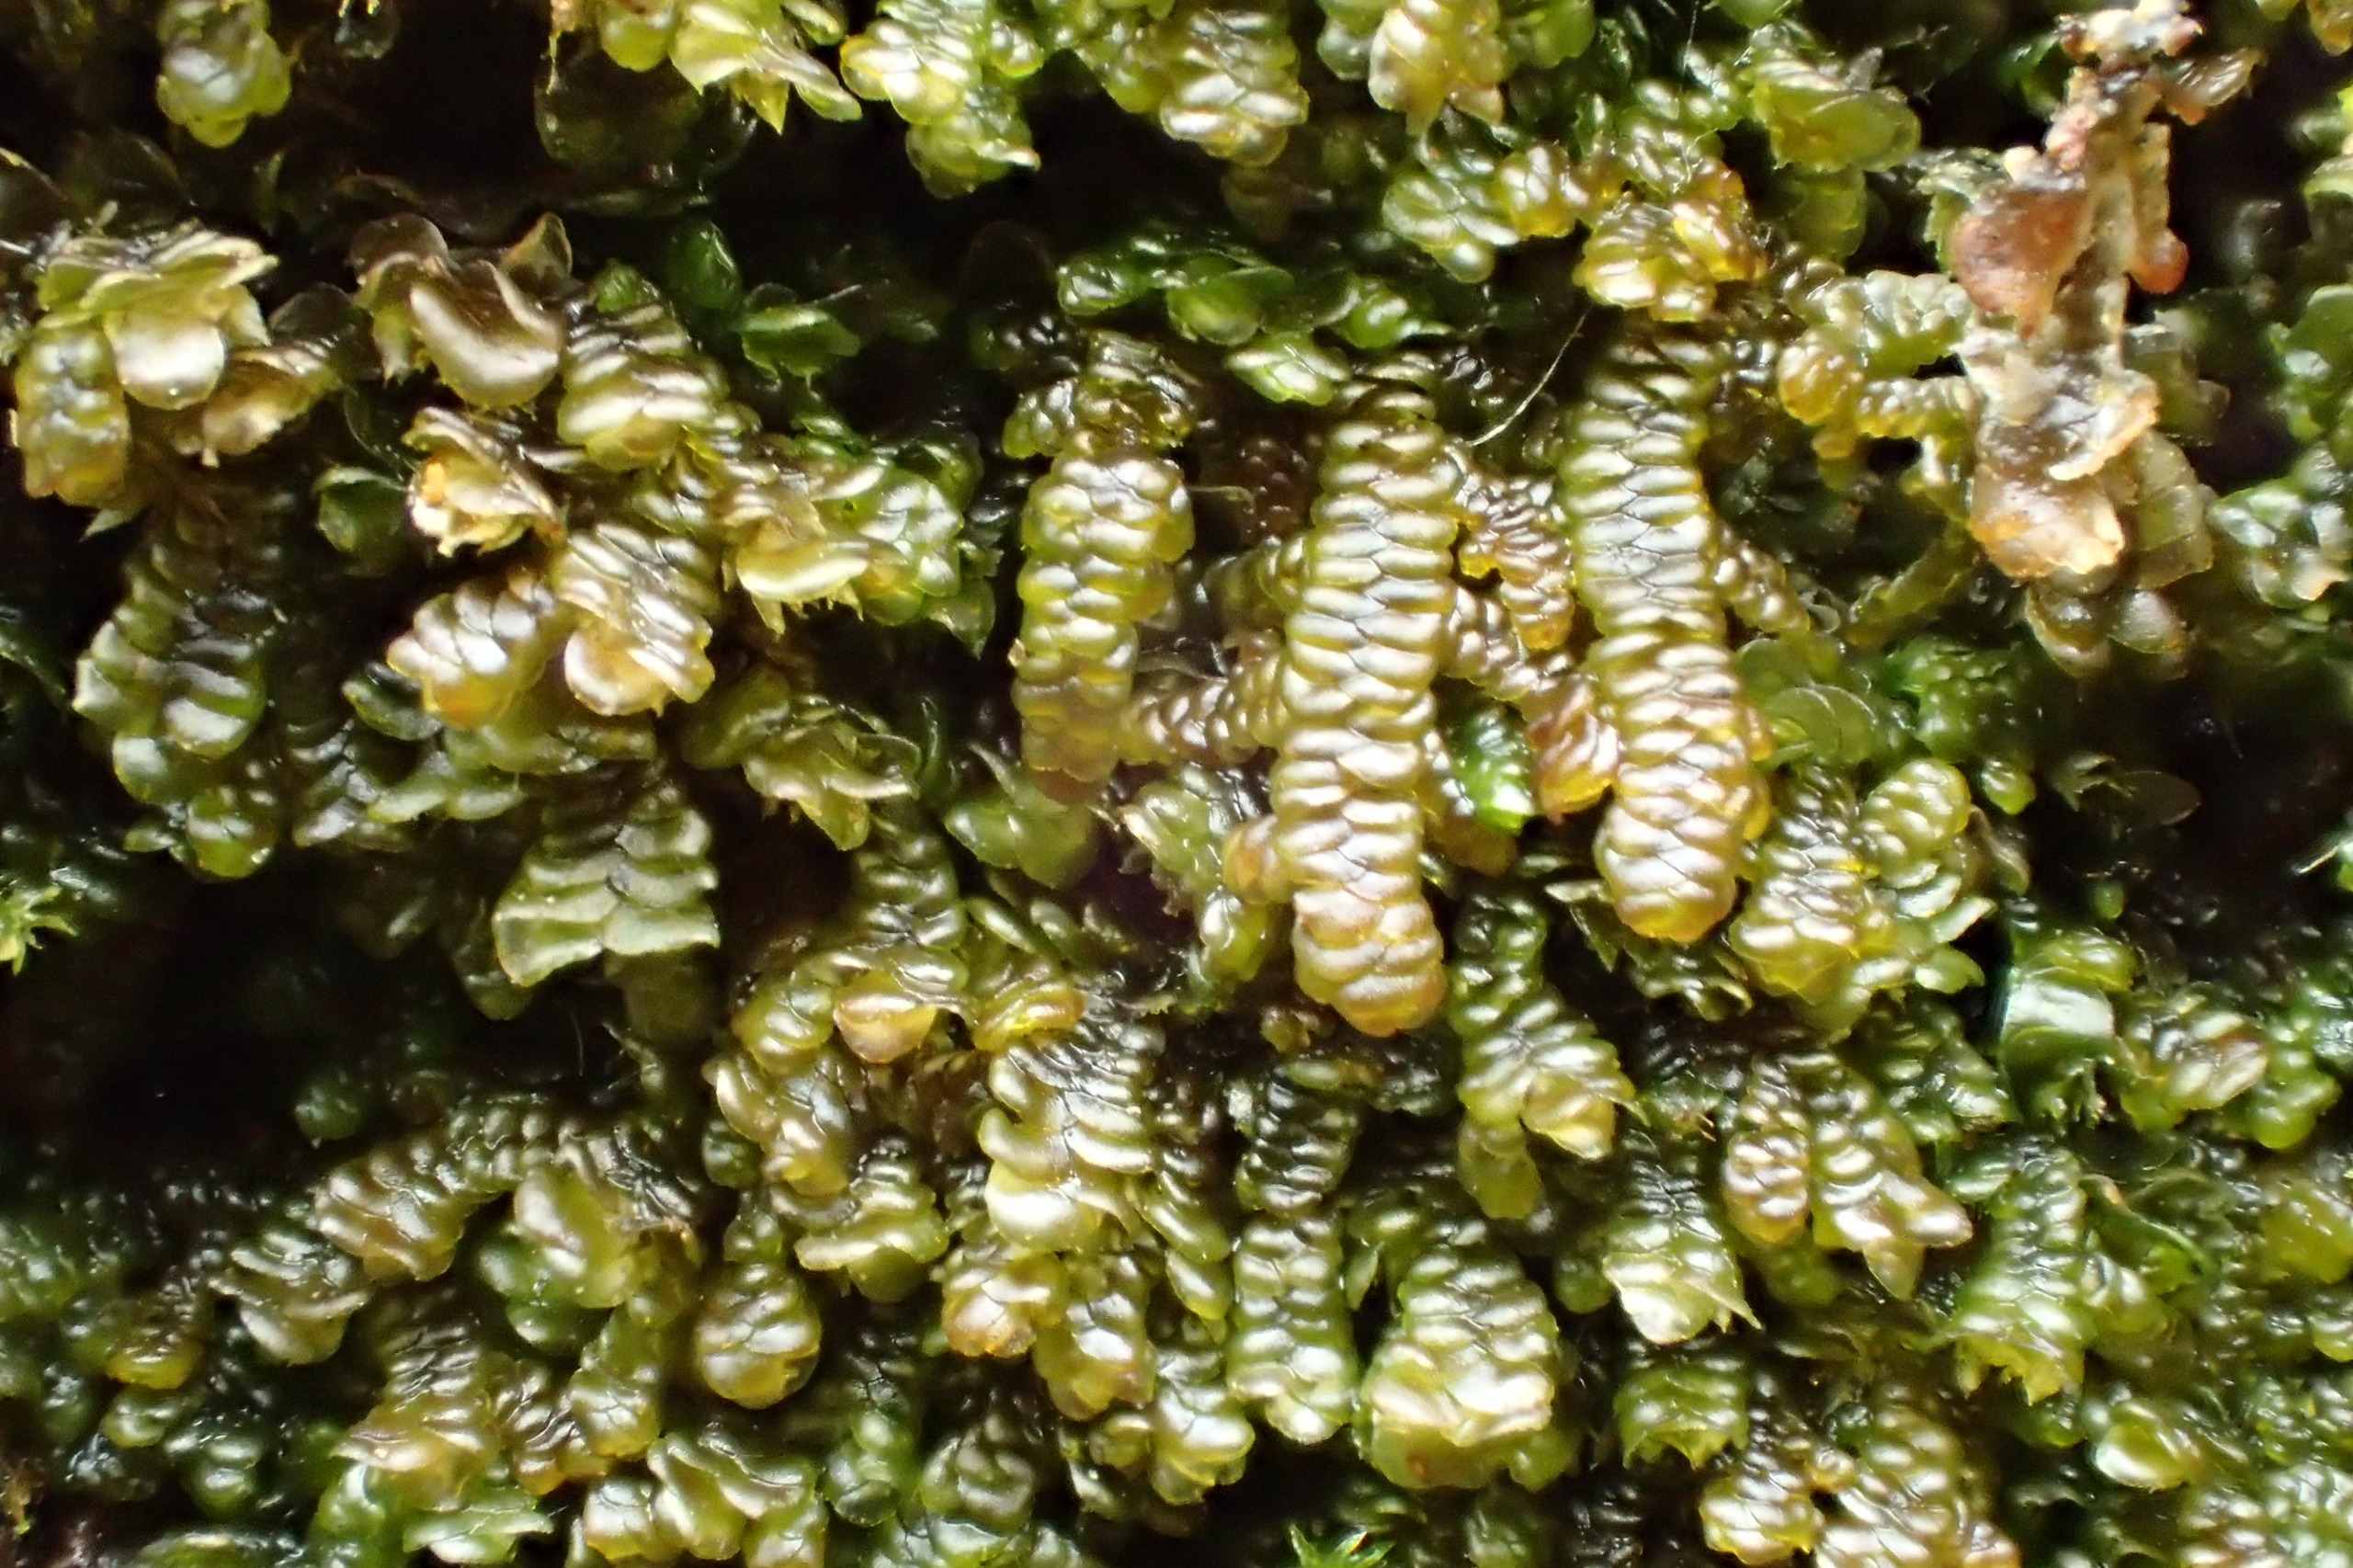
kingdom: Plantae
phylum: Marchantiophyta
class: Jungermanniopsida
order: Porellales
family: Frullaniaceae
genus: Frullania
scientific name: Frullania dilatata
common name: Mat bronzemos
